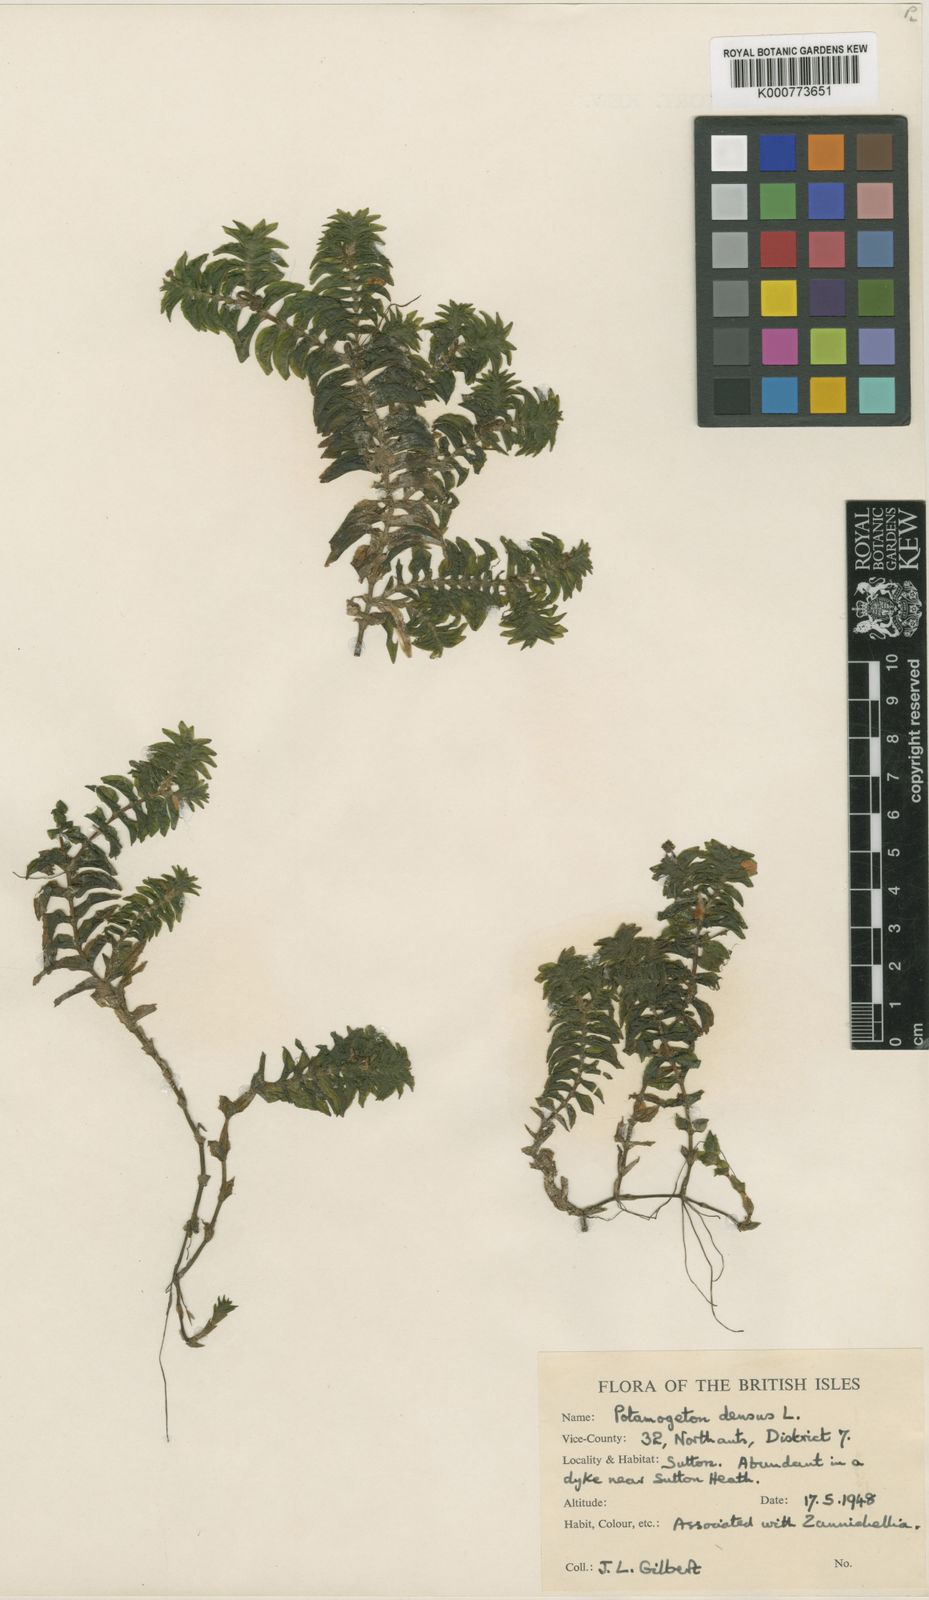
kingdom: Plantae
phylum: Tracheophyta
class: Liliopsida
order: Alismatales
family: Potamogetonaceae
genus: Groenlandia
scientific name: Groenlandia densa
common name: Opposite-leaved pondweed
